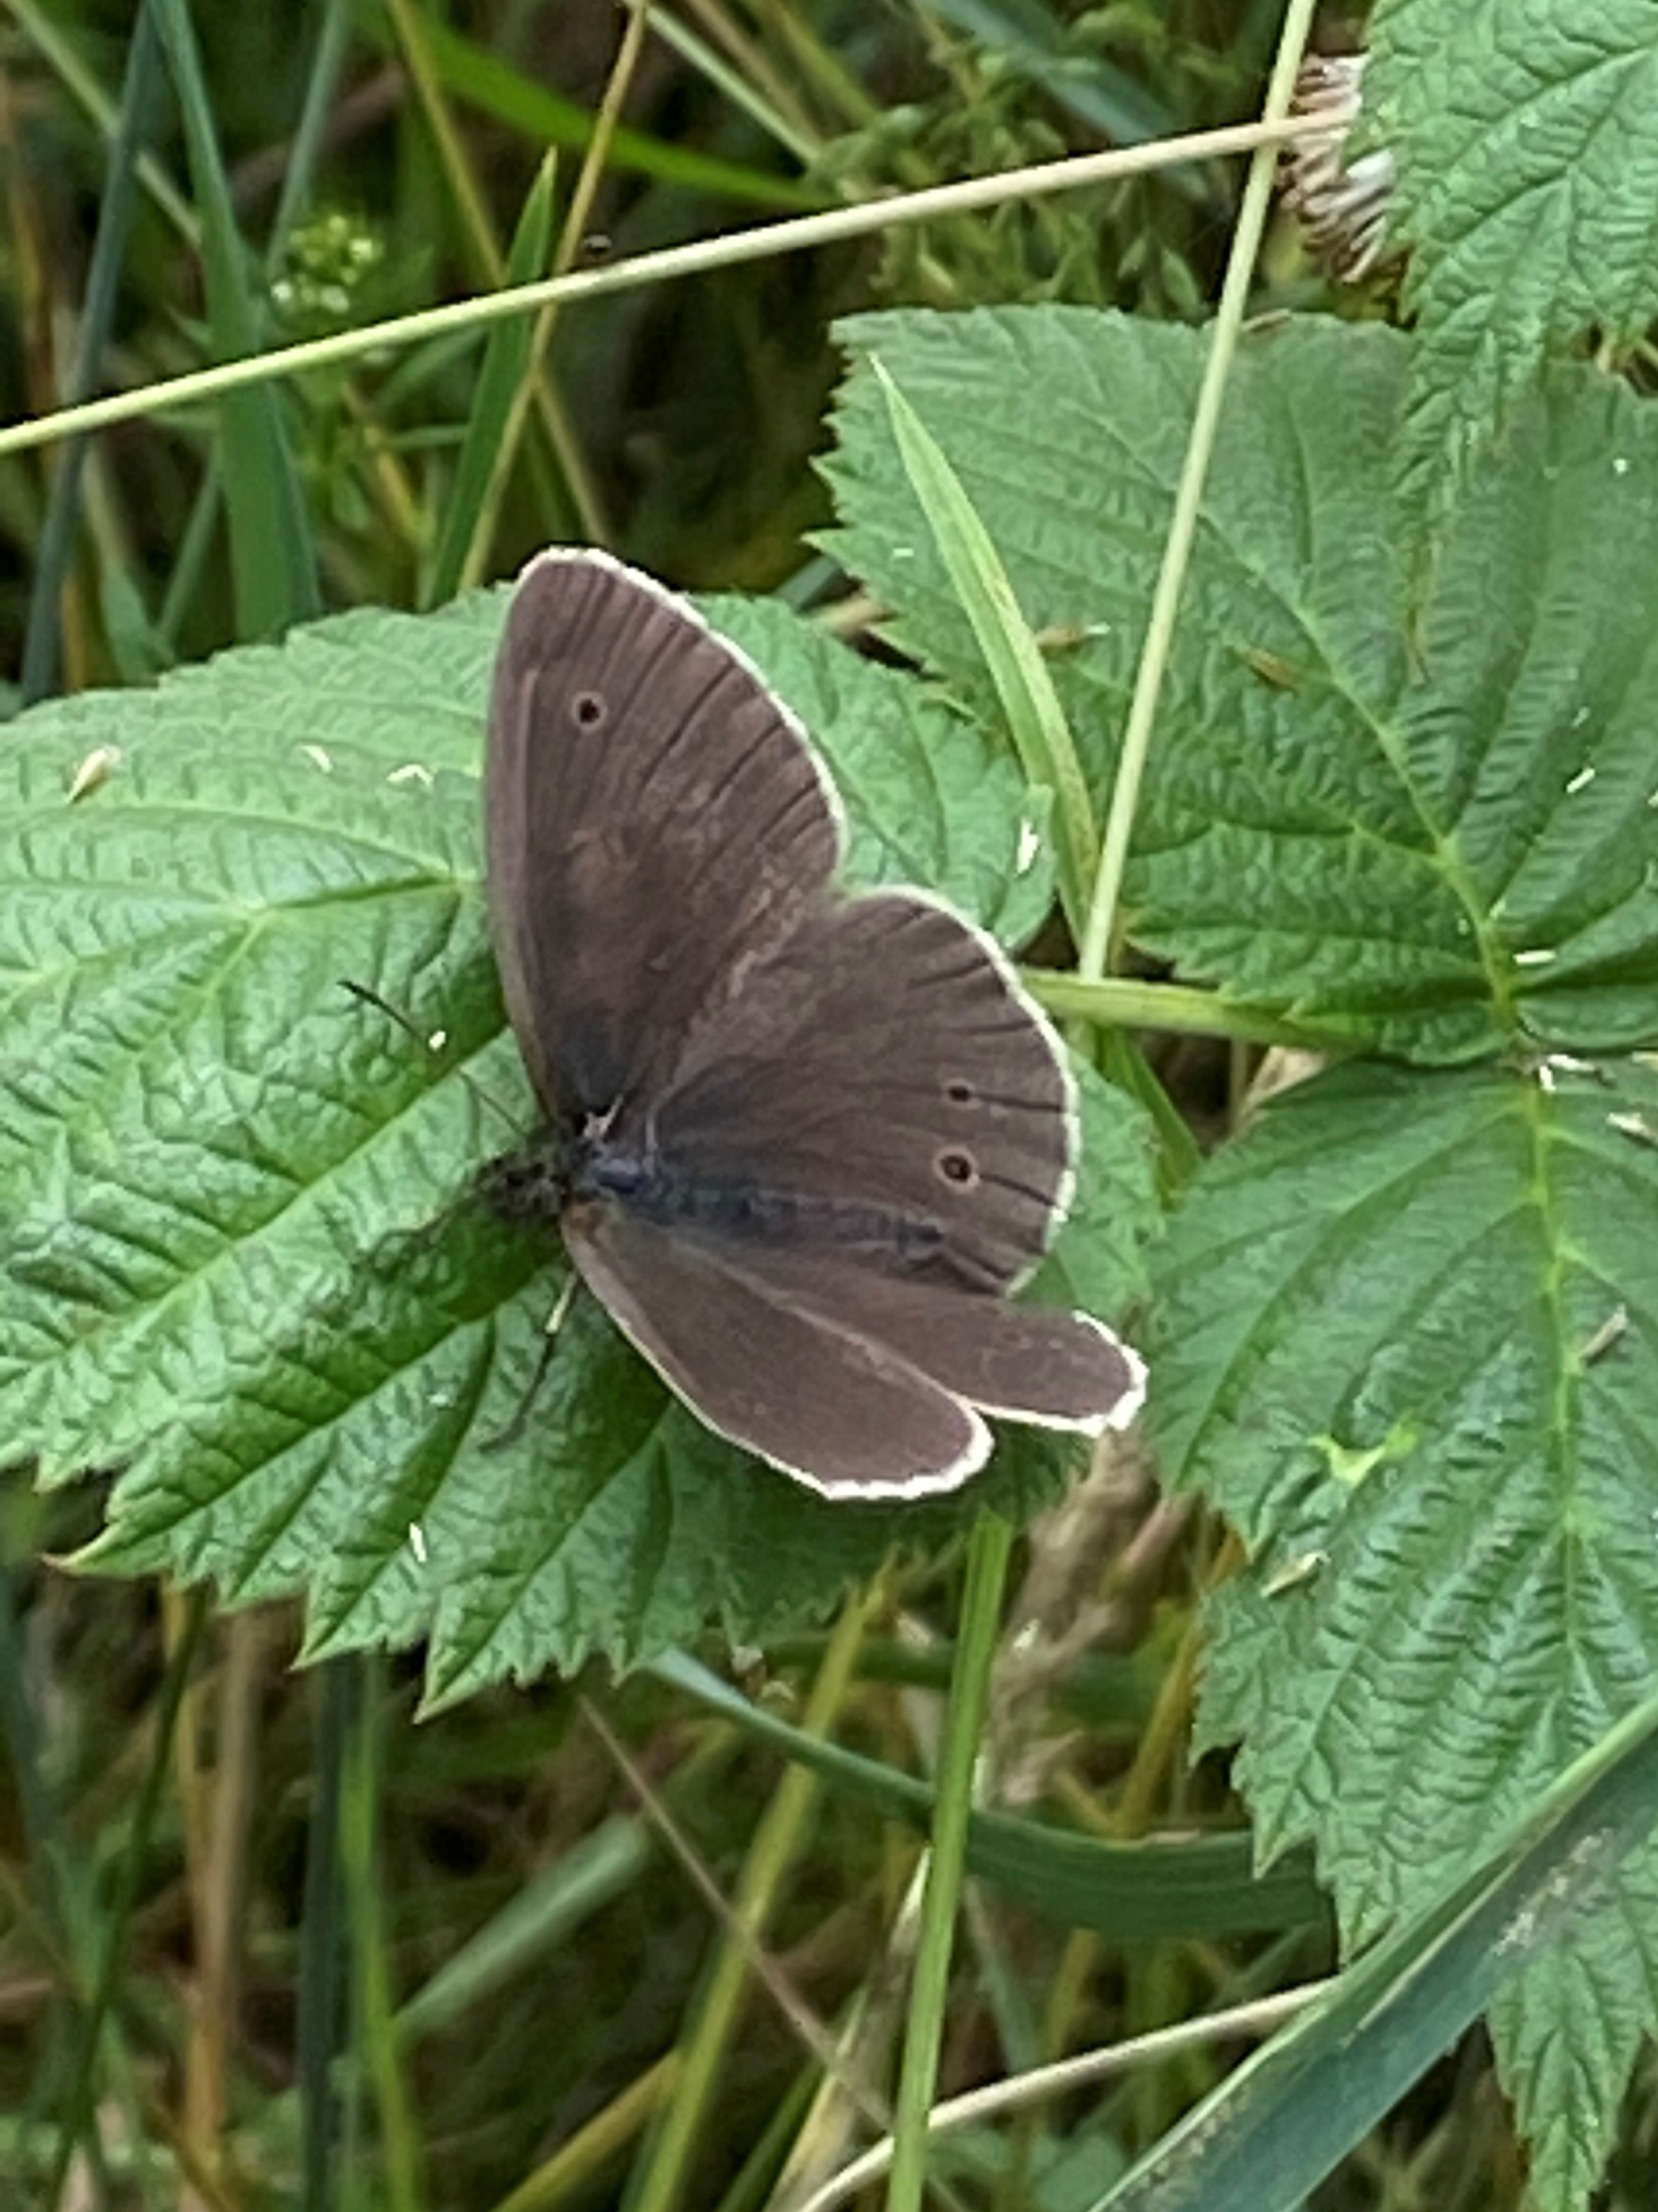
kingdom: Animalia
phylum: Arthropoda
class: Insecta
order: Lepidoptera
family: Nymphalidae
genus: Aphantopus
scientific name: Aphantopus hyperantus
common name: Engrandøje
